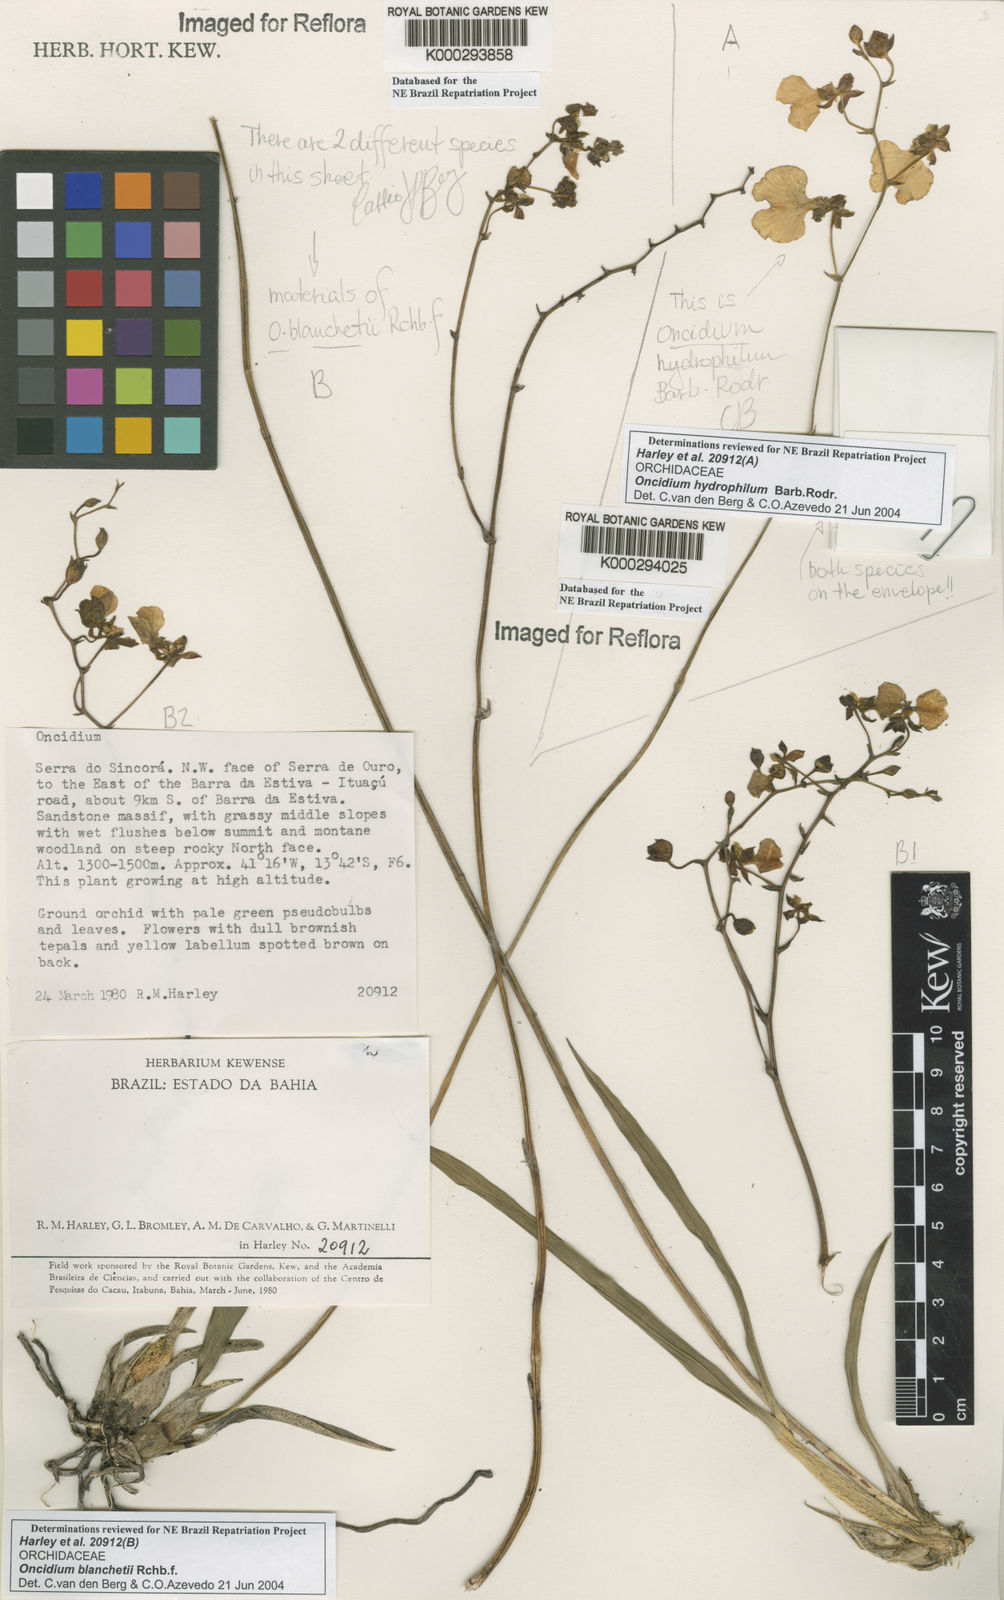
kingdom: Plantae
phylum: Tracheophyta
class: Liliopsida
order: Asparagales
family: Orchidaceae
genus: Gomesa
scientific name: Gomesa sincorana
